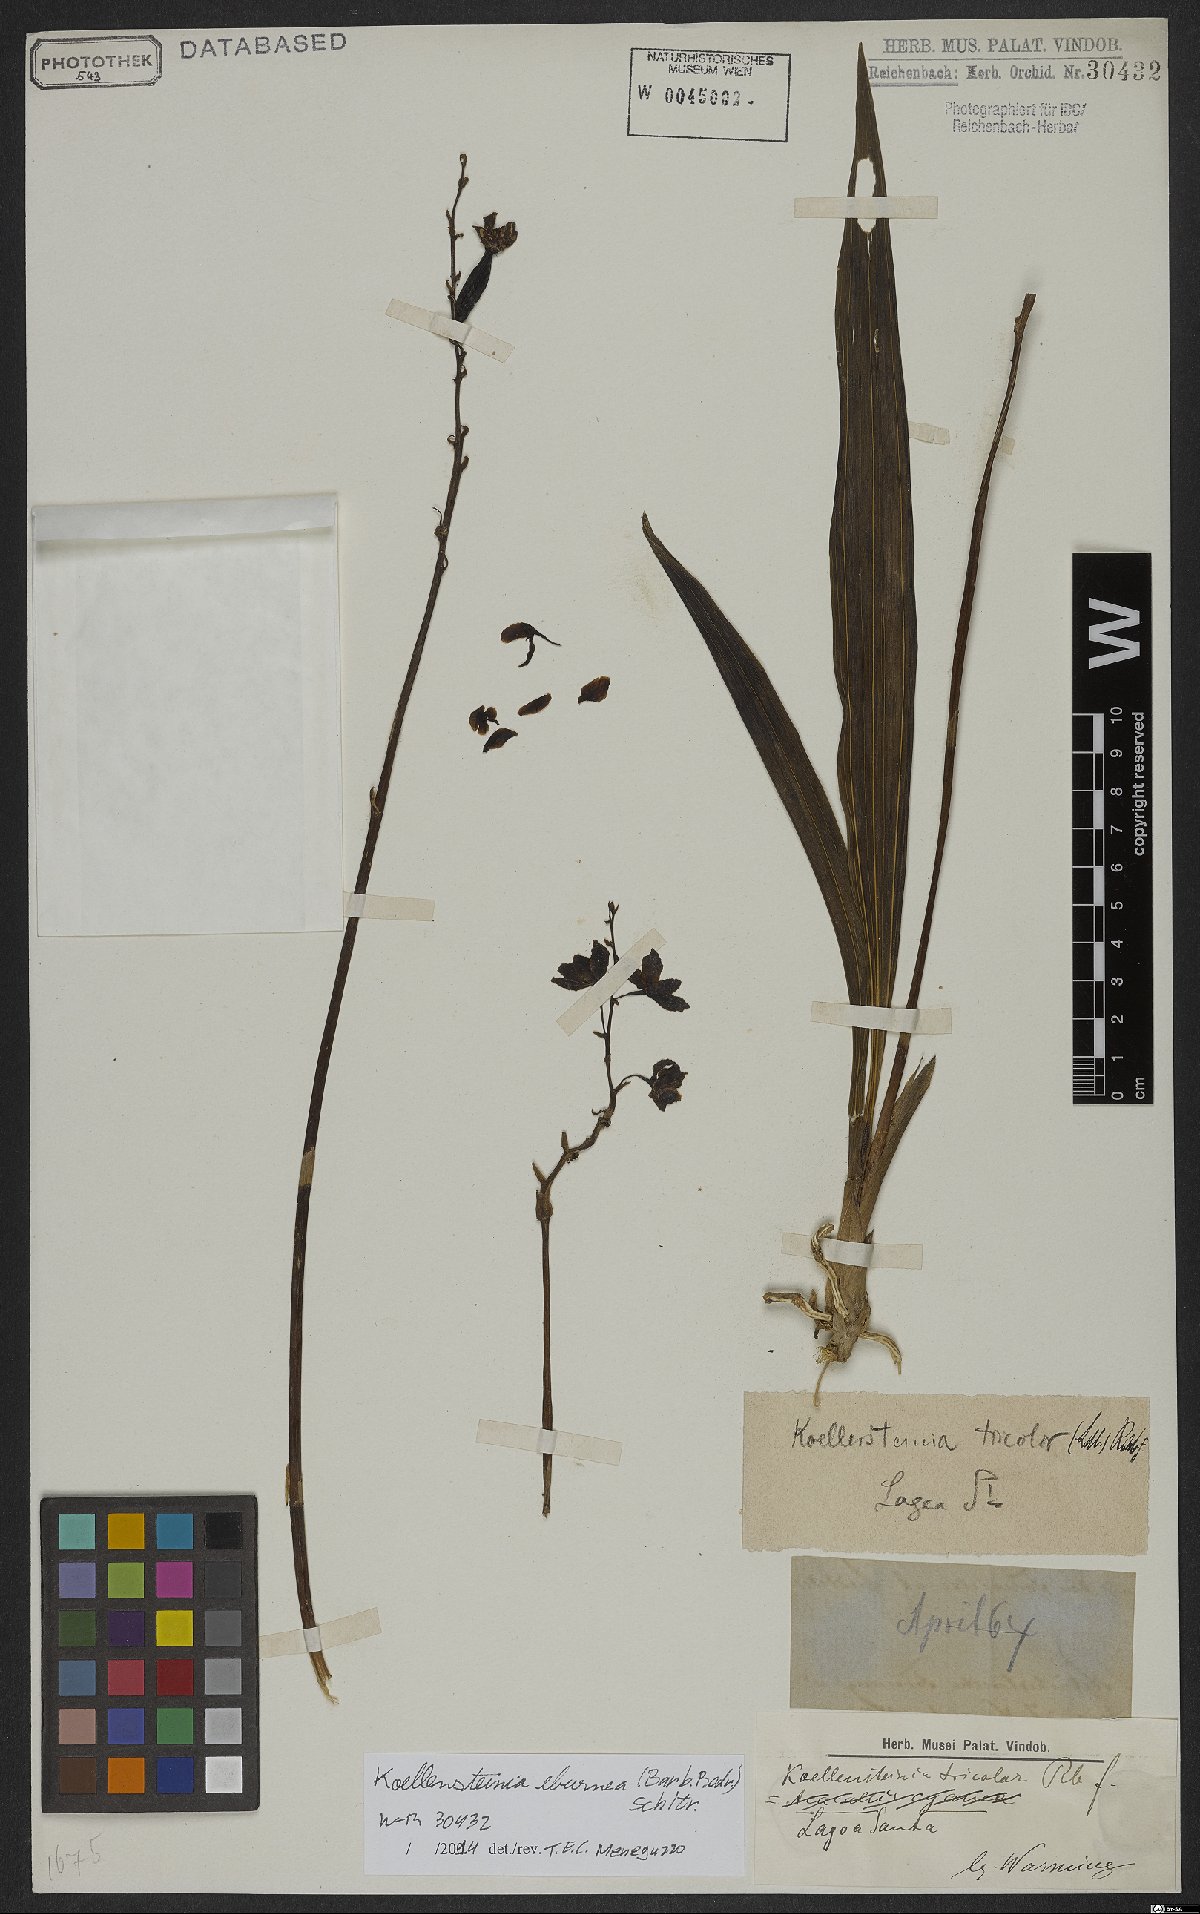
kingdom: Plantae
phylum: Tracheophyta
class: Liliopsida
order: Asparagales
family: Orchidaceae
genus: Koellensteinia
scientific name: Koellensteinia tricolor
